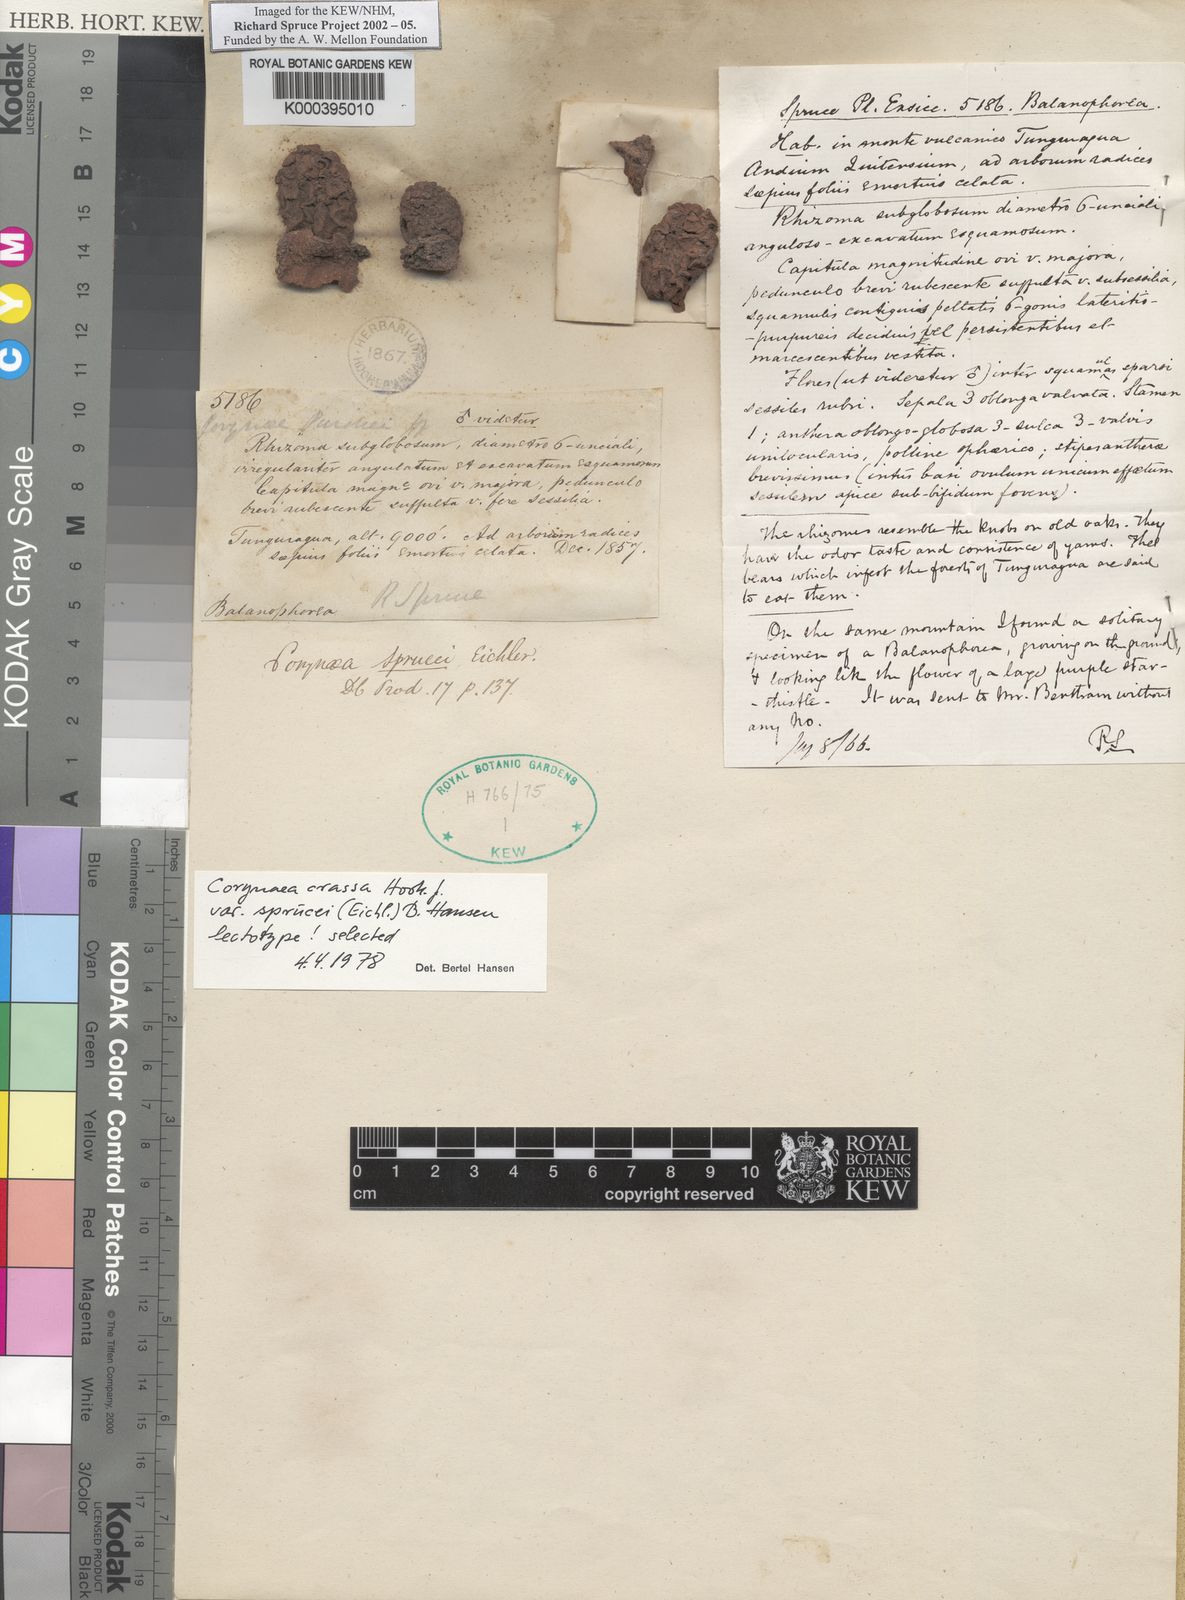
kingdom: Plantae
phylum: Tracheophyta
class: Magnoliopsida
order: Santalales
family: Balanophoraceae
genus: Corynaea
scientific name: Corynaea crassa
